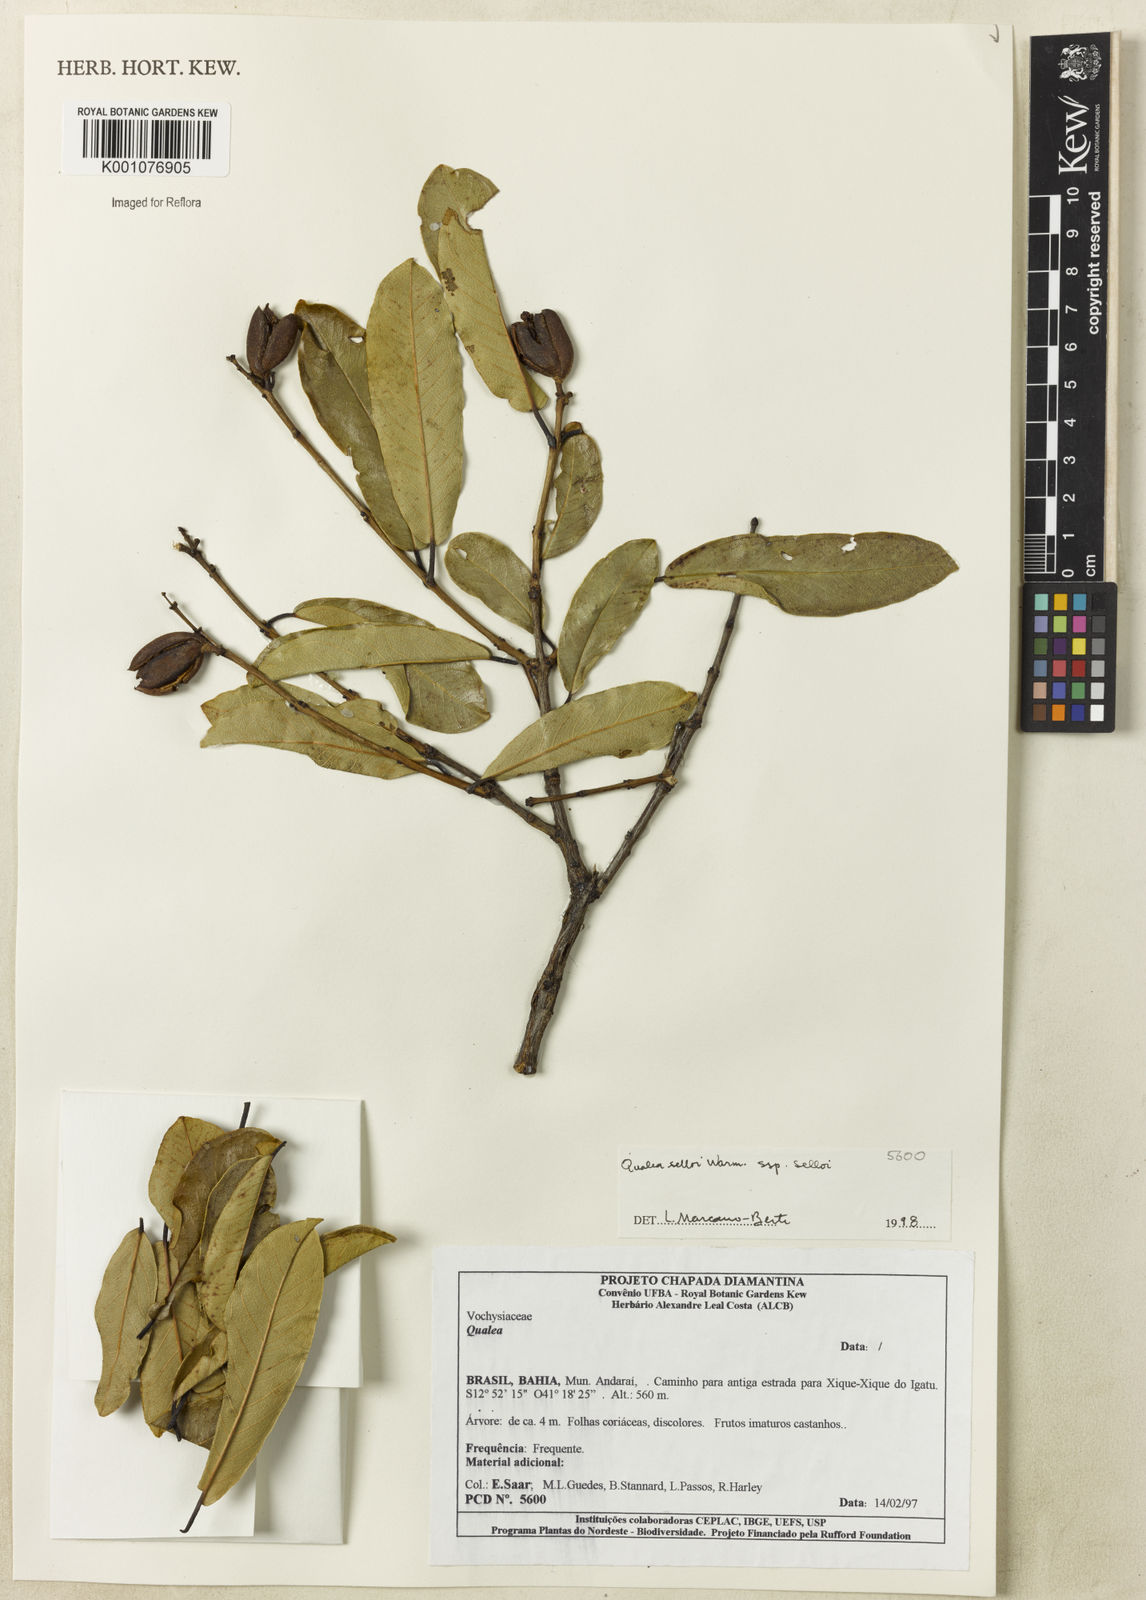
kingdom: Plantae
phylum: Tracheophyta
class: Magnoliopsida
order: Myrtales
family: Vochysiaceae
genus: Qualea
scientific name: Qualea selloi
